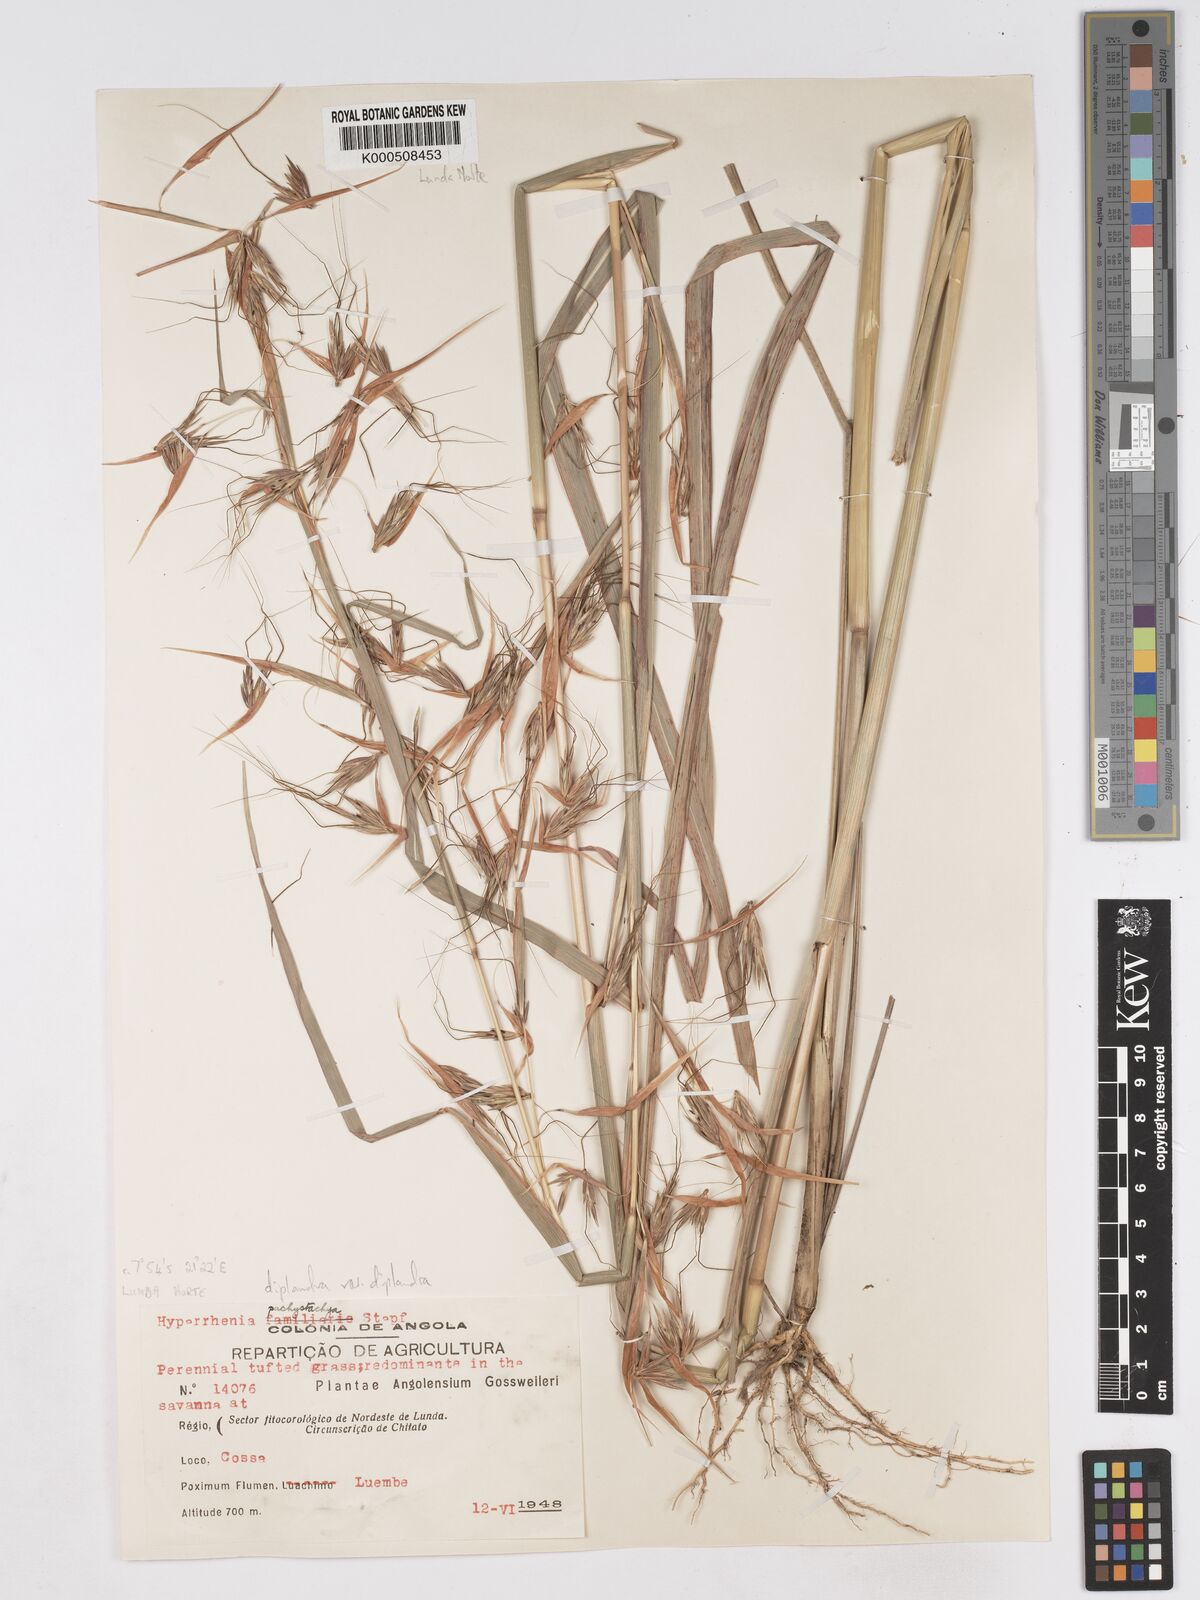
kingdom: Plantae
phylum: Tracheophyta
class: Liliopsida
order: Poales
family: Poaceae
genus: Hyparrhenia
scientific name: Hyparrhenia diplandra
